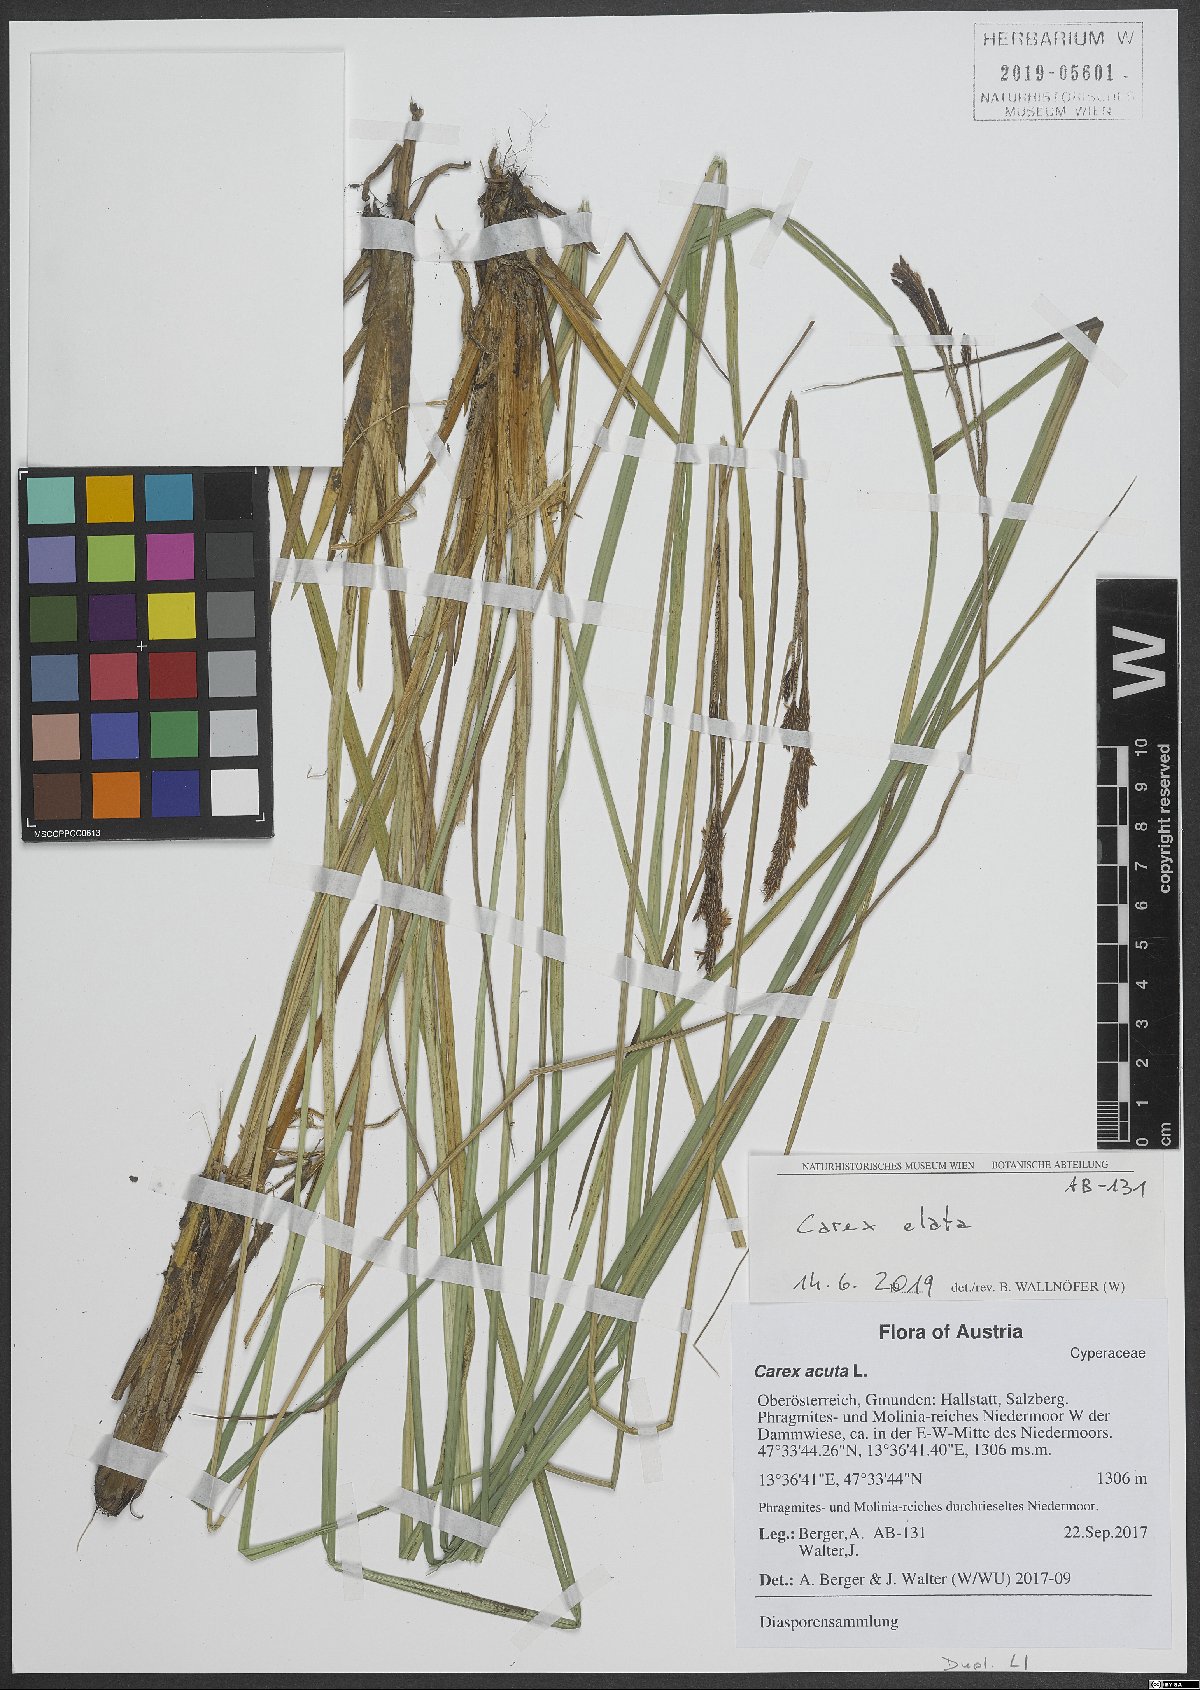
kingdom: Plantae
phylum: Tracheophyta
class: Liliopsida
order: Poales
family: Cyperaceae
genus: Carex
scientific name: Carex elata
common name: Tufted sedge
